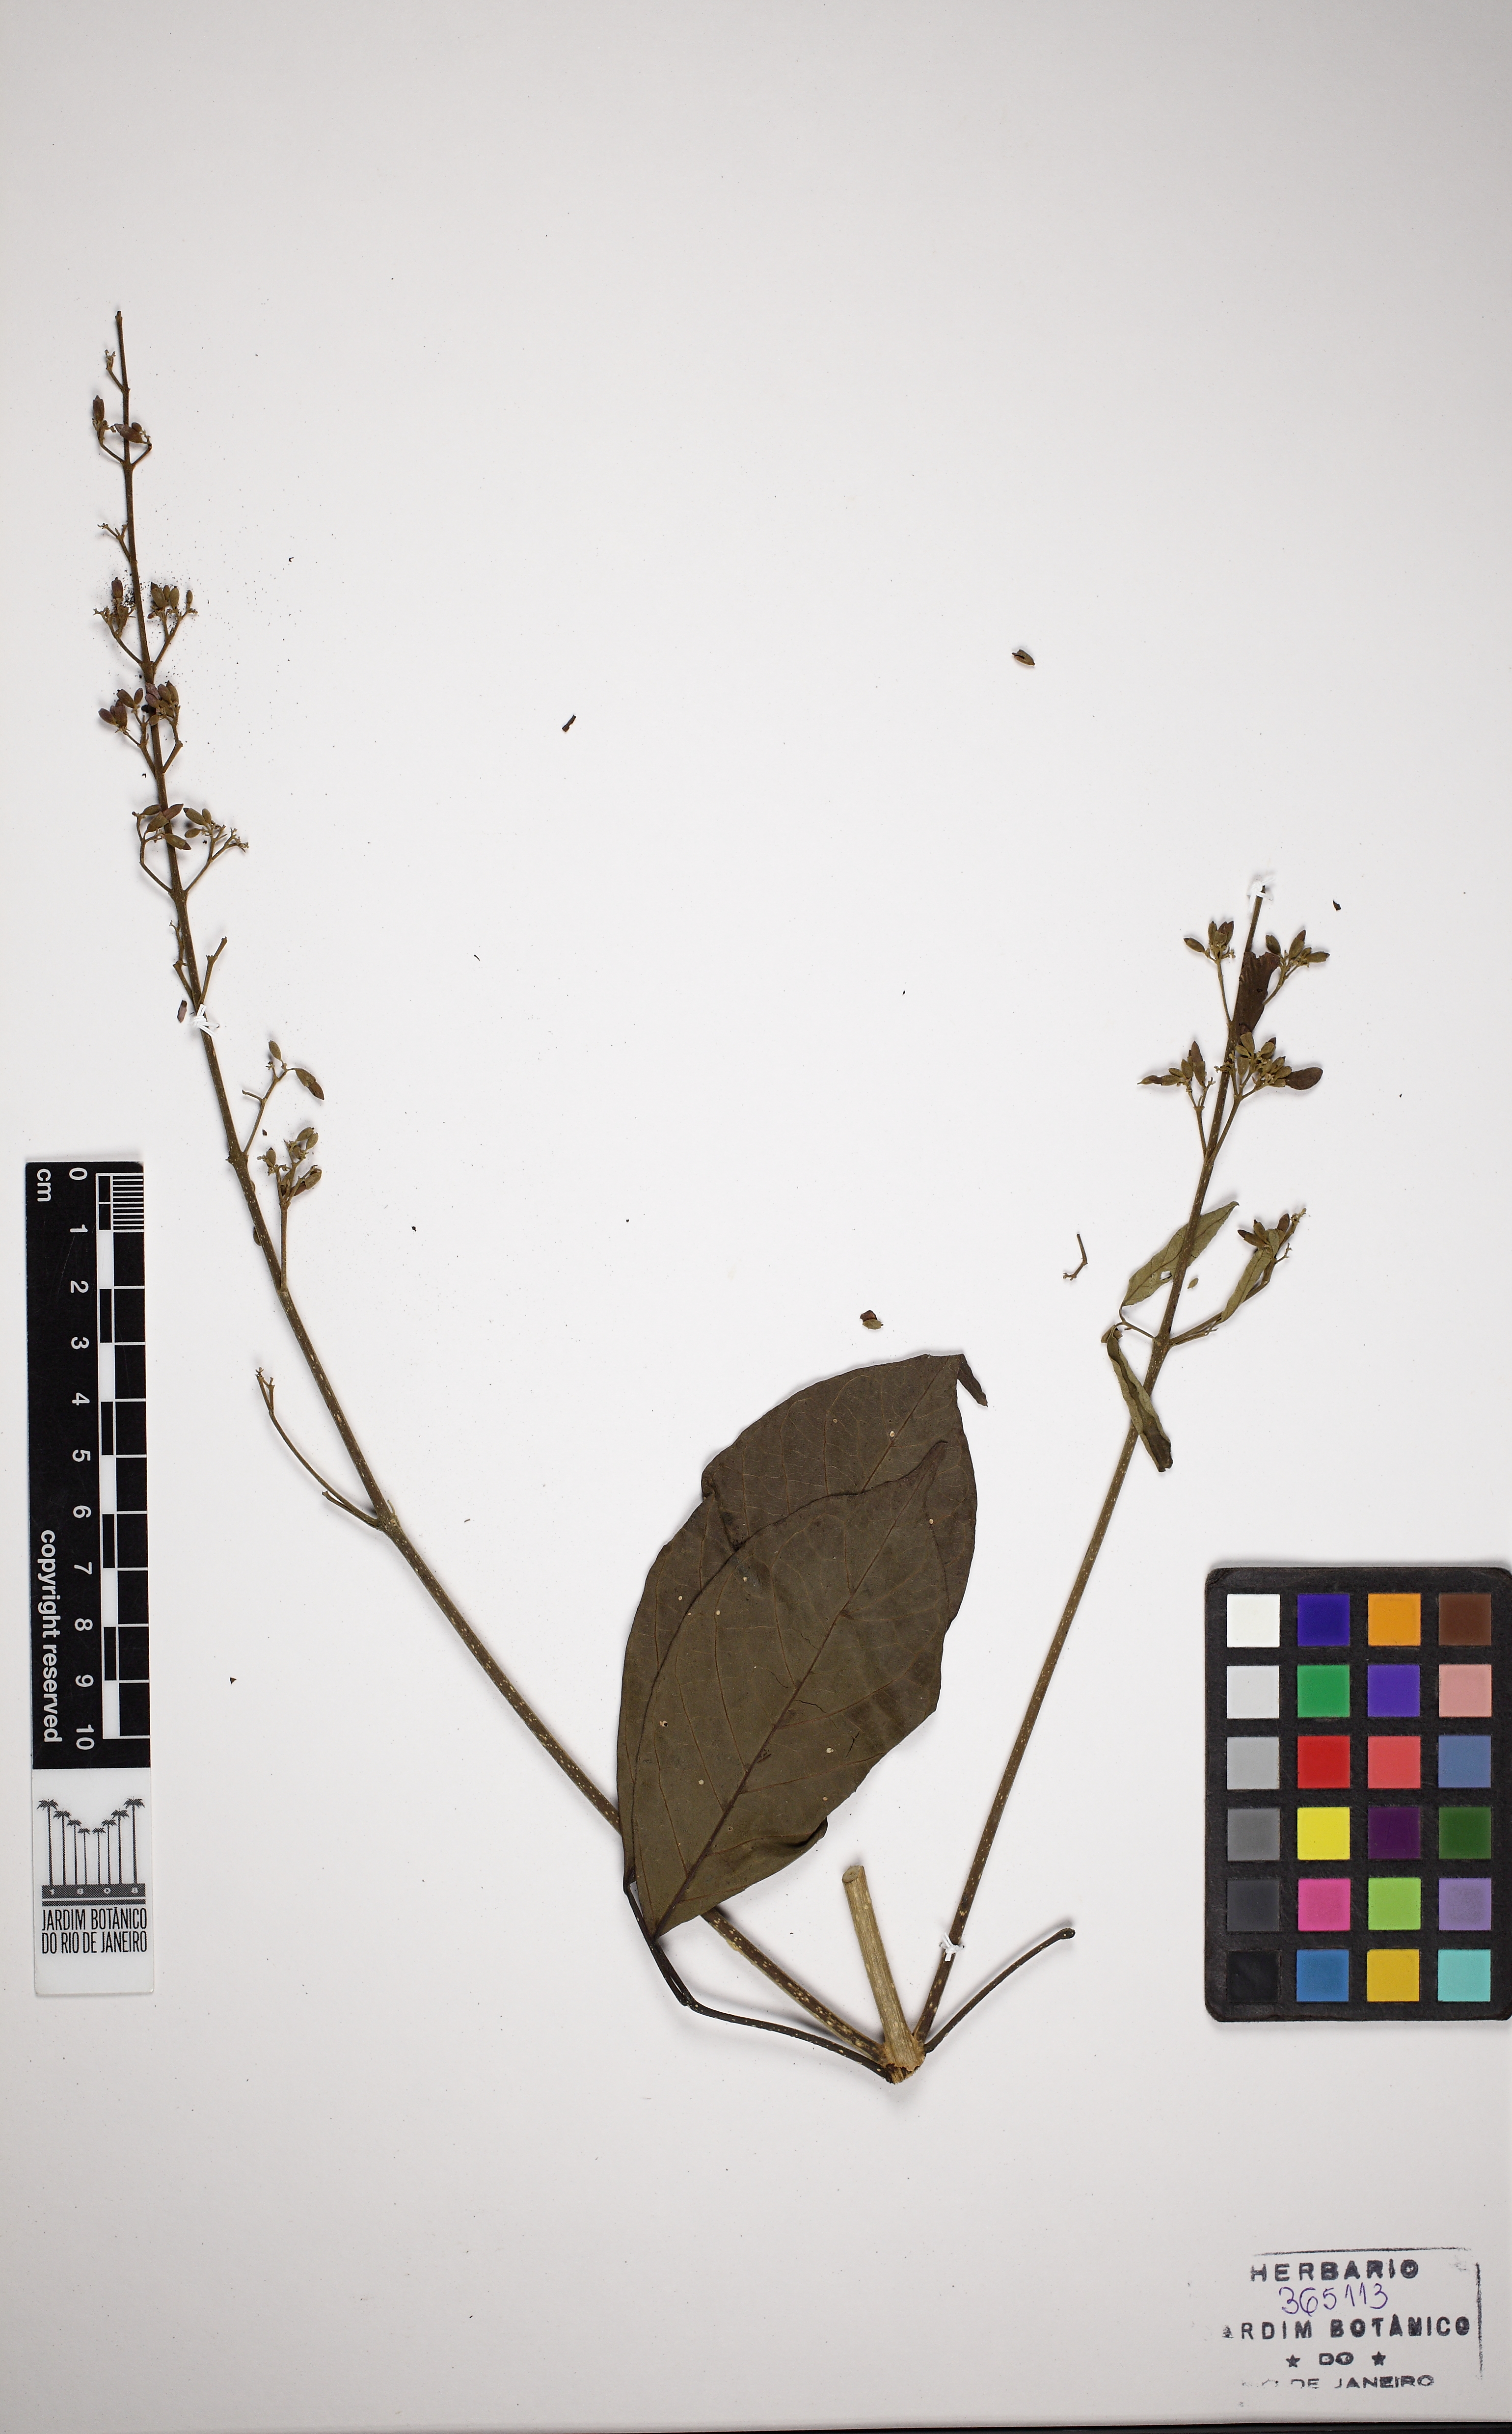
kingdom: Plantae
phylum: Tracheophyta
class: Magnoliopsida
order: Lamiales
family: Bignoniaceae
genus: Fridericia
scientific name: Fridericia platyphylla
